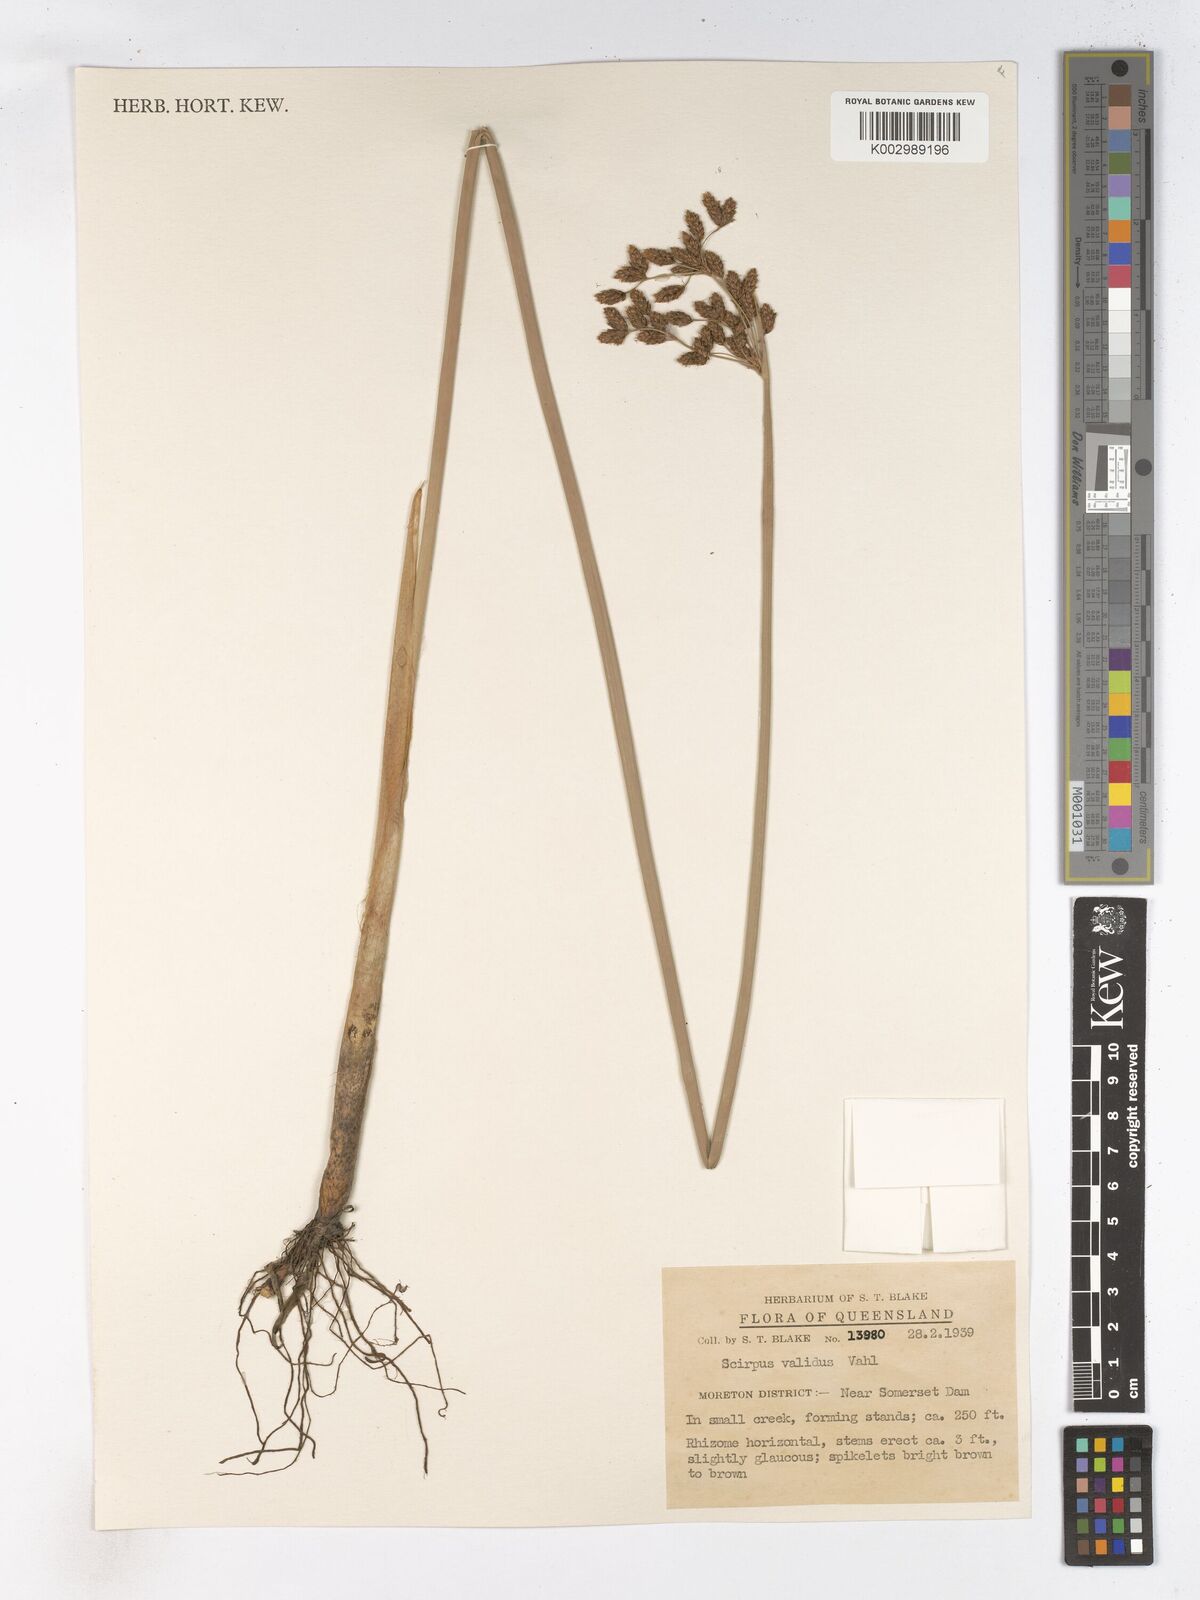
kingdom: Plantae
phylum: Tracheophyta
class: Liliopsida
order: Poales
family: Cyperaceae
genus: Schoenoplectus
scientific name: Schoenoplectus lacustris
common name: Common club-rush
